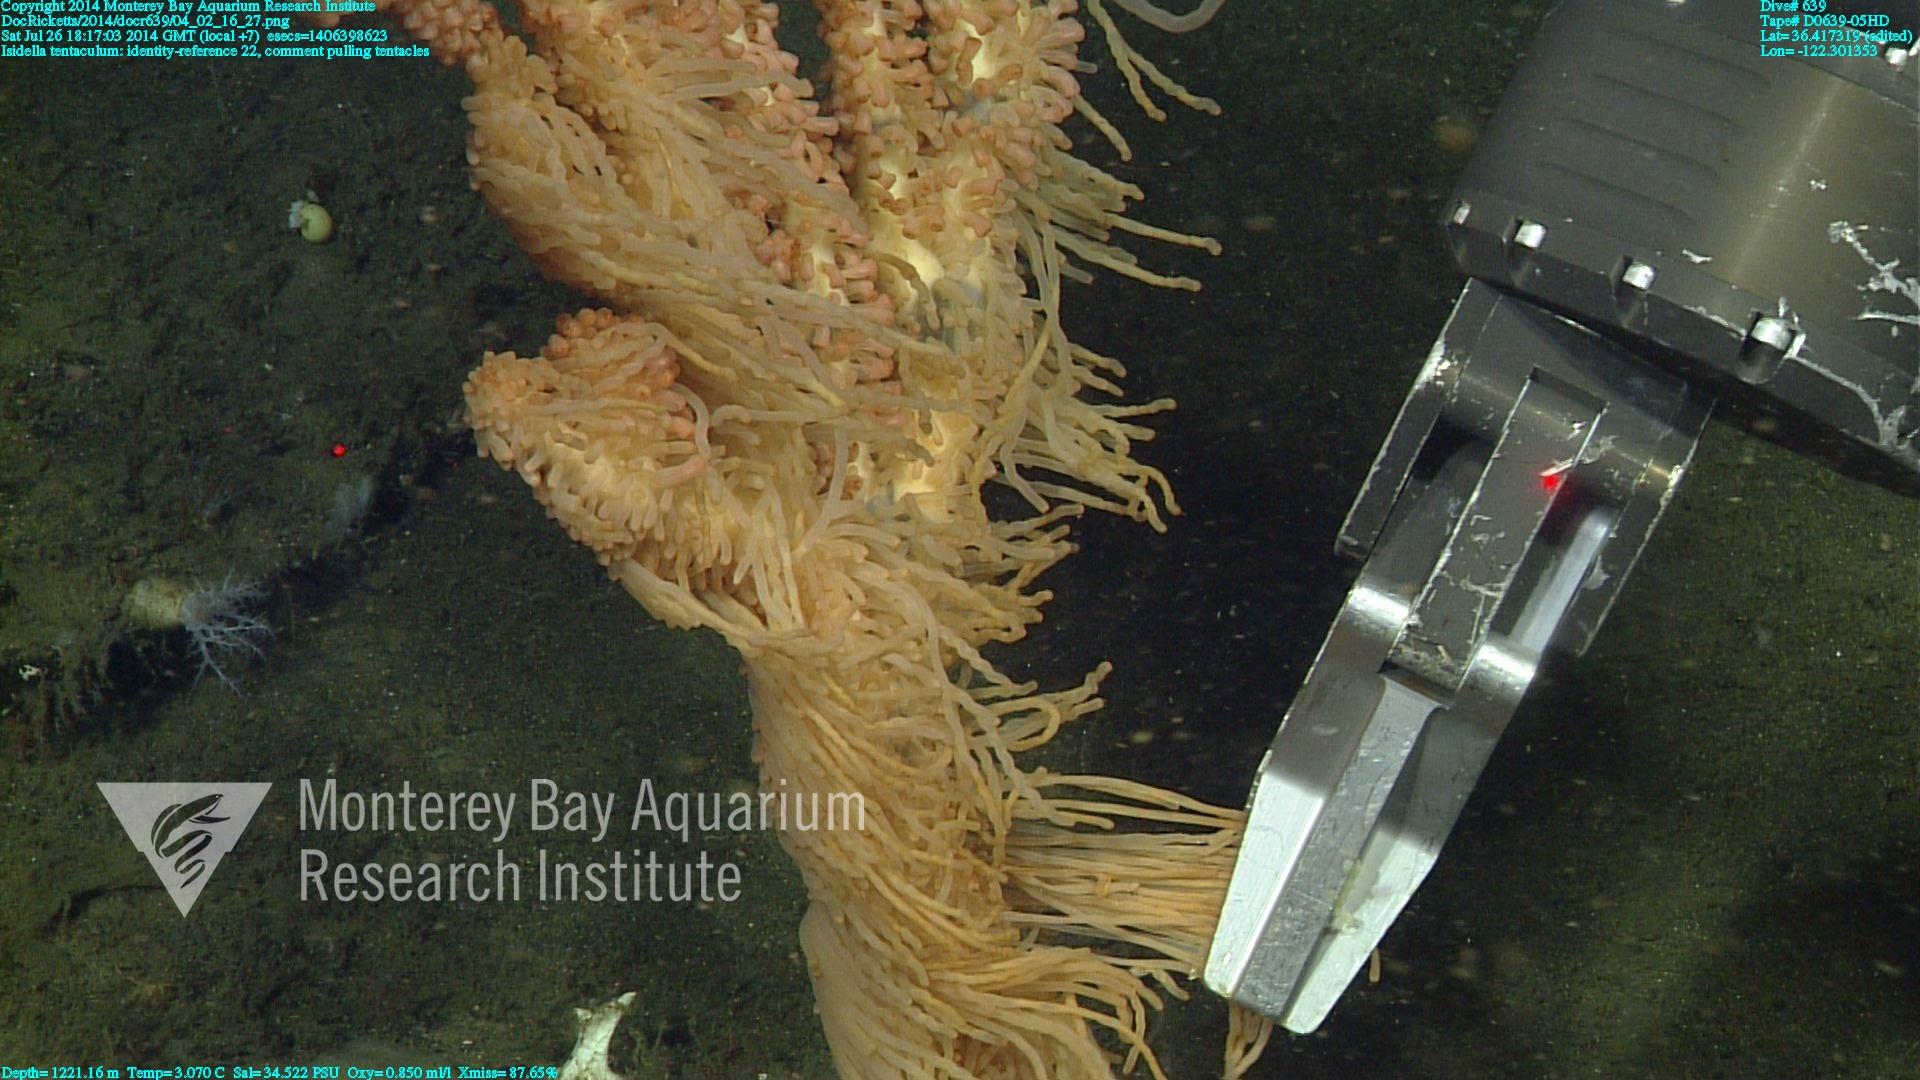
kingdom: Animalia
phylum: Cnidaria
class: Anthozoa
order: Scleralcyonacea
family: Keratoisididae
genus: Isidella
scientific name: Isidella tentaculum
